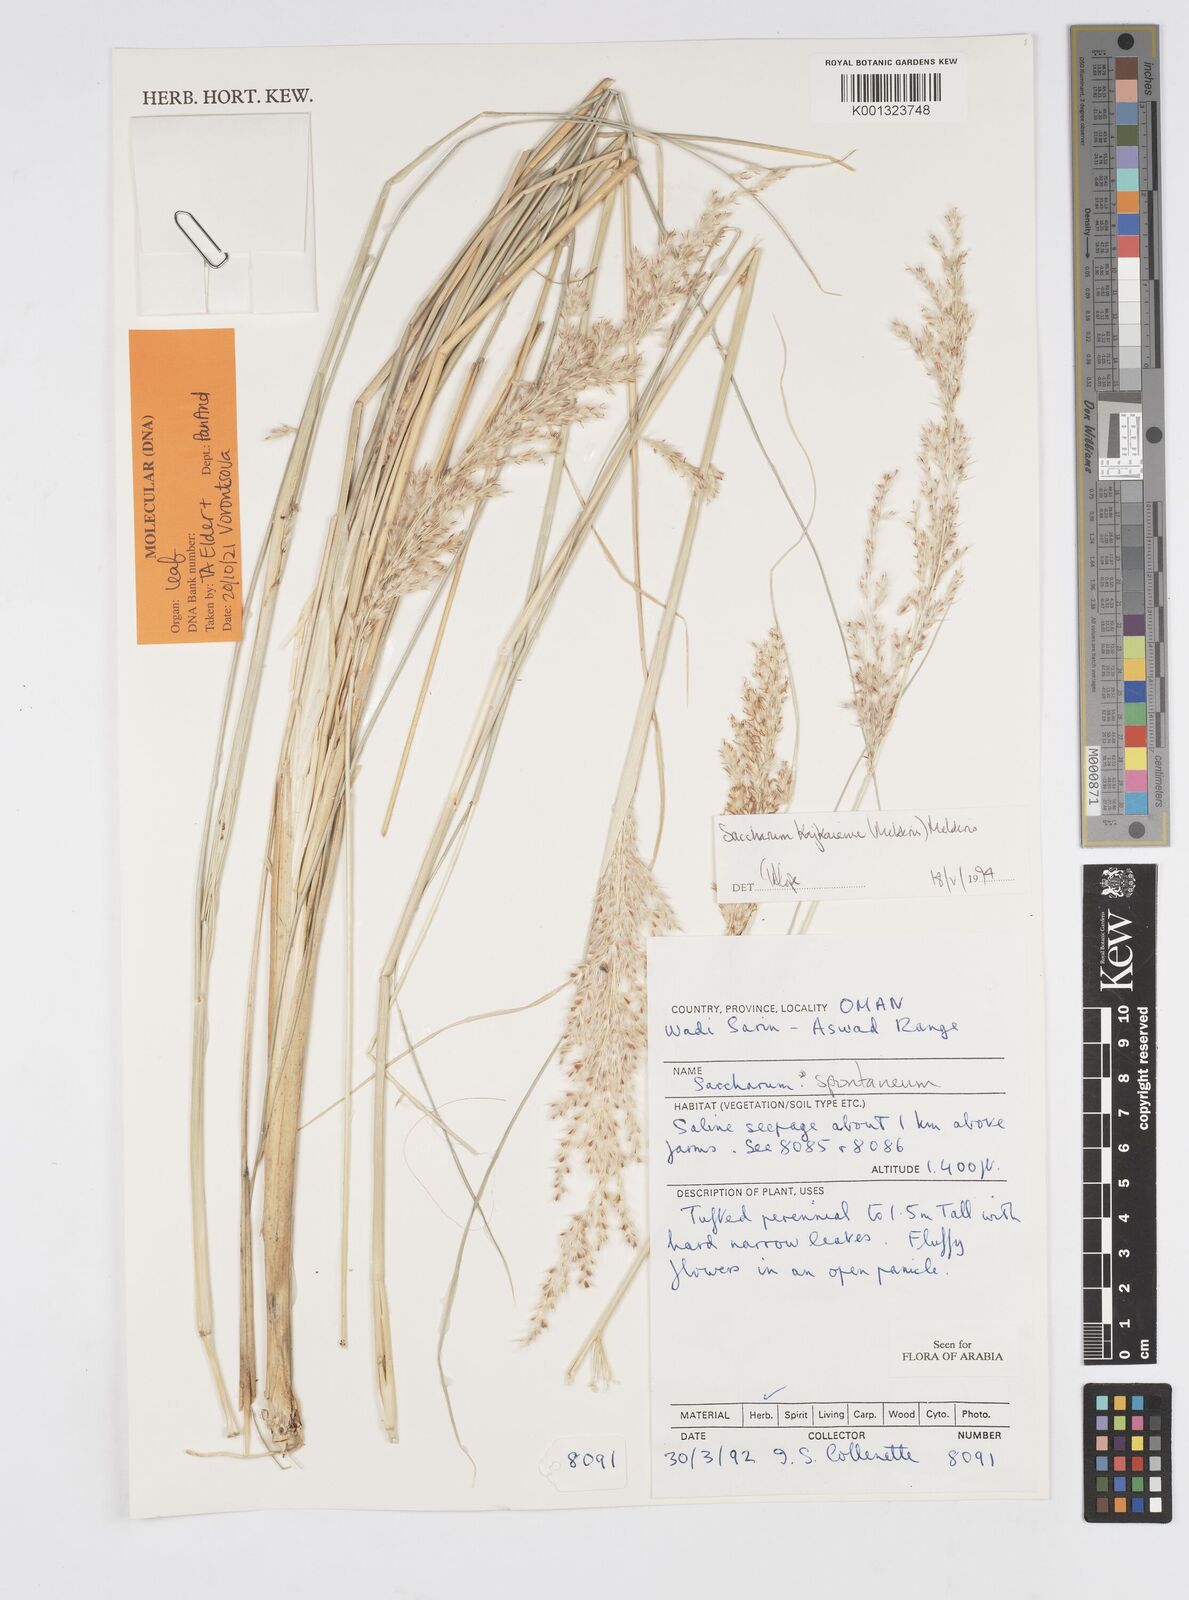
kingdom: Plantae
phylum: Tracheophyta
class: Liliopsida
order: Poales
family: Poaceae
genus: Saccharum
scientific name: Saccharum kajkaiense
